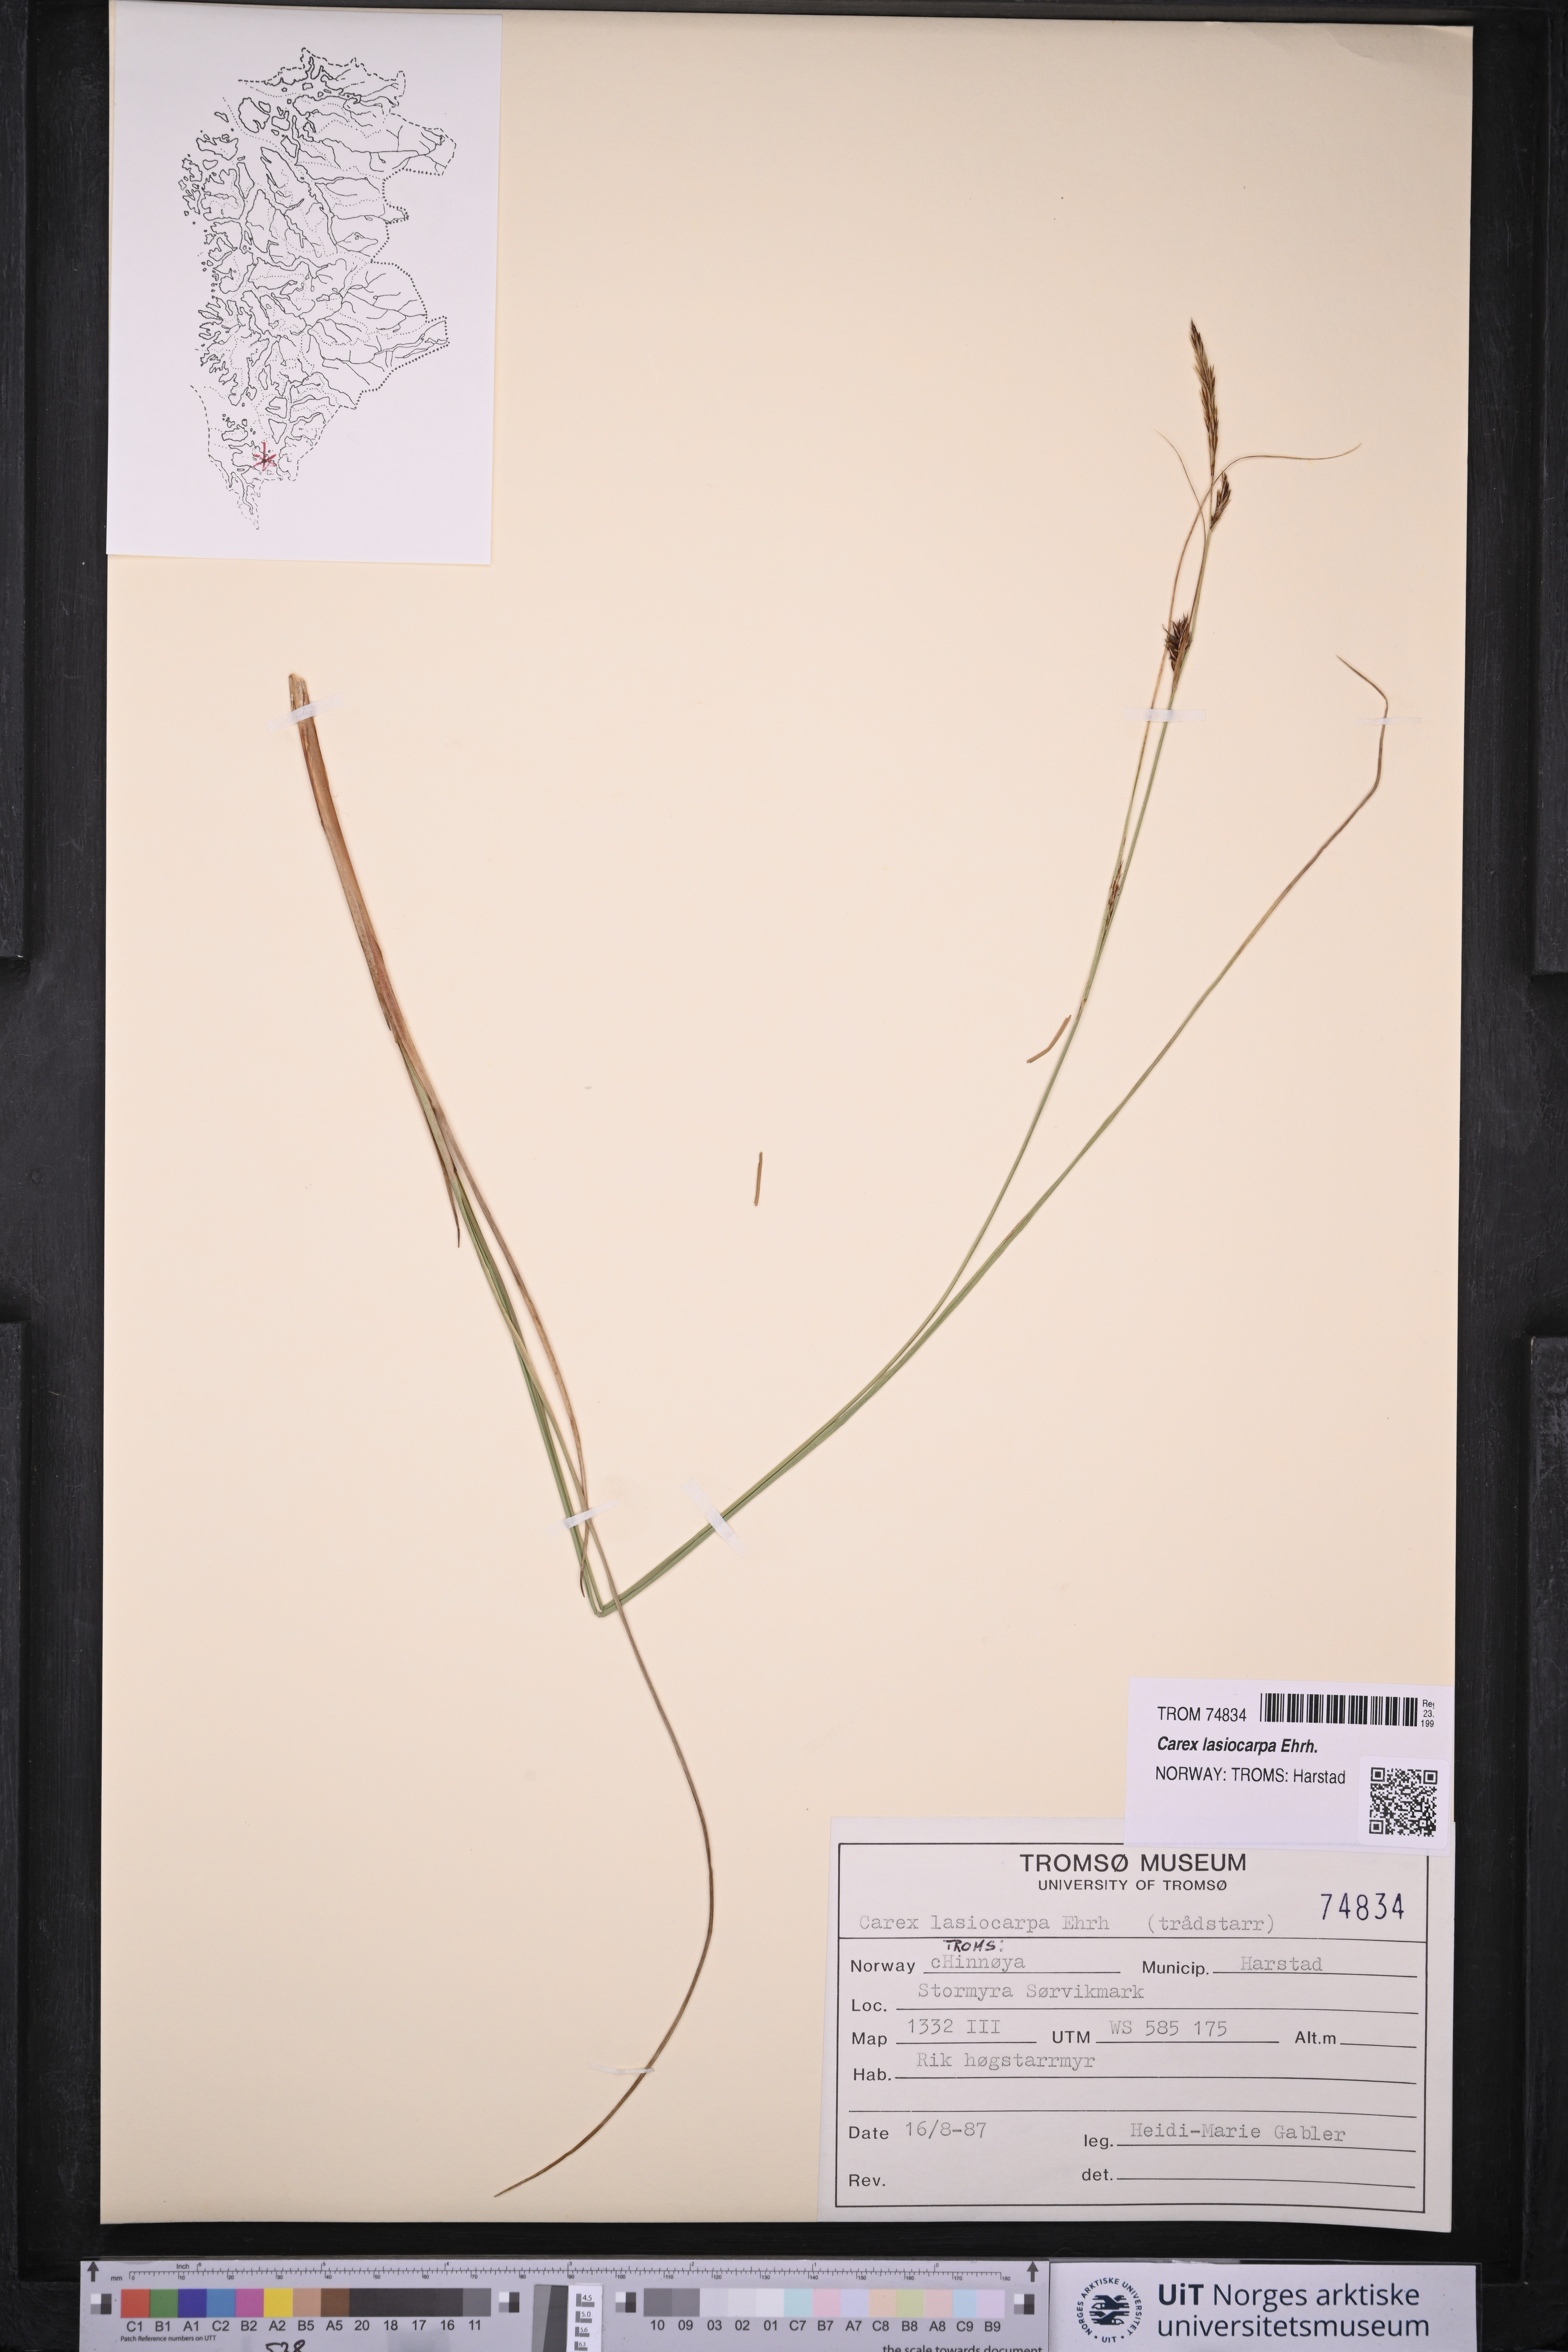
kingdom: Plantae
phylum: Tracheophyta
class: Liliopsida
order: Poales
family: Cyperaceae
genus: Carex
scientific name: Carex lasiocarpa
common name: Slender sedge
